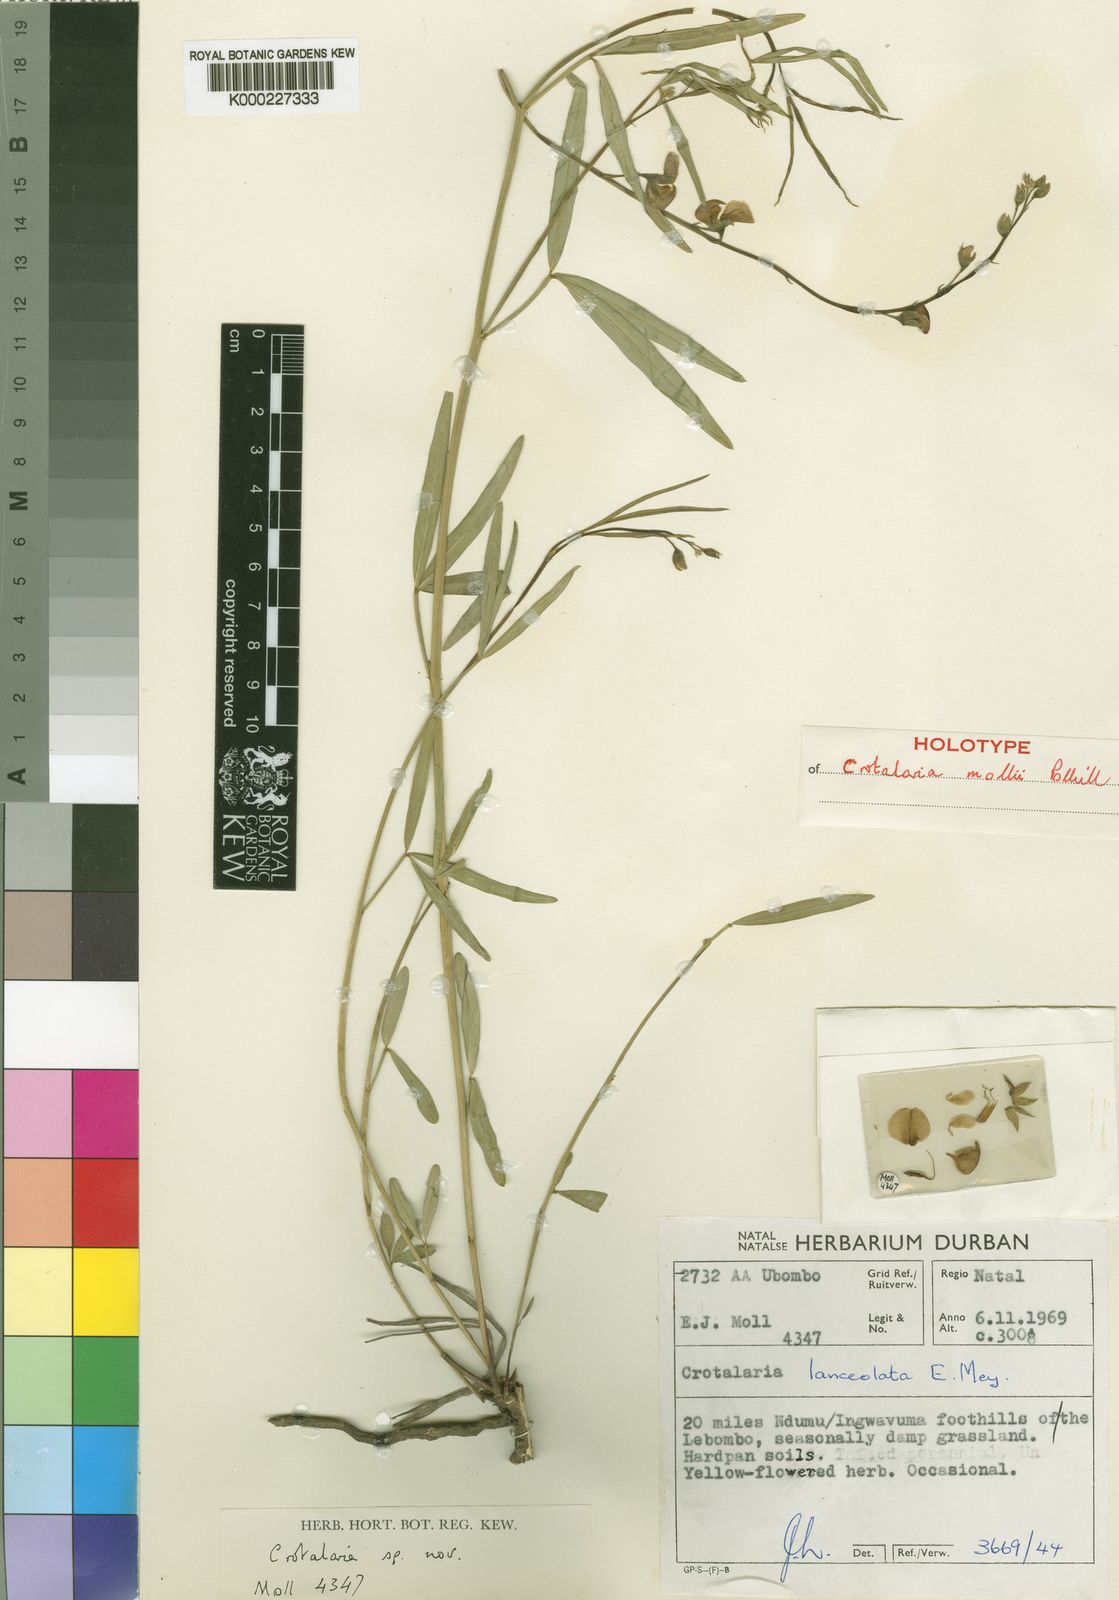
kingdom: Plantae
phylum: Tracheophyta
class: Magnoliopsida
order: Fabales
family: Fabaceae
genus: Crotalaria
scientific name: Crotalaria mollii
